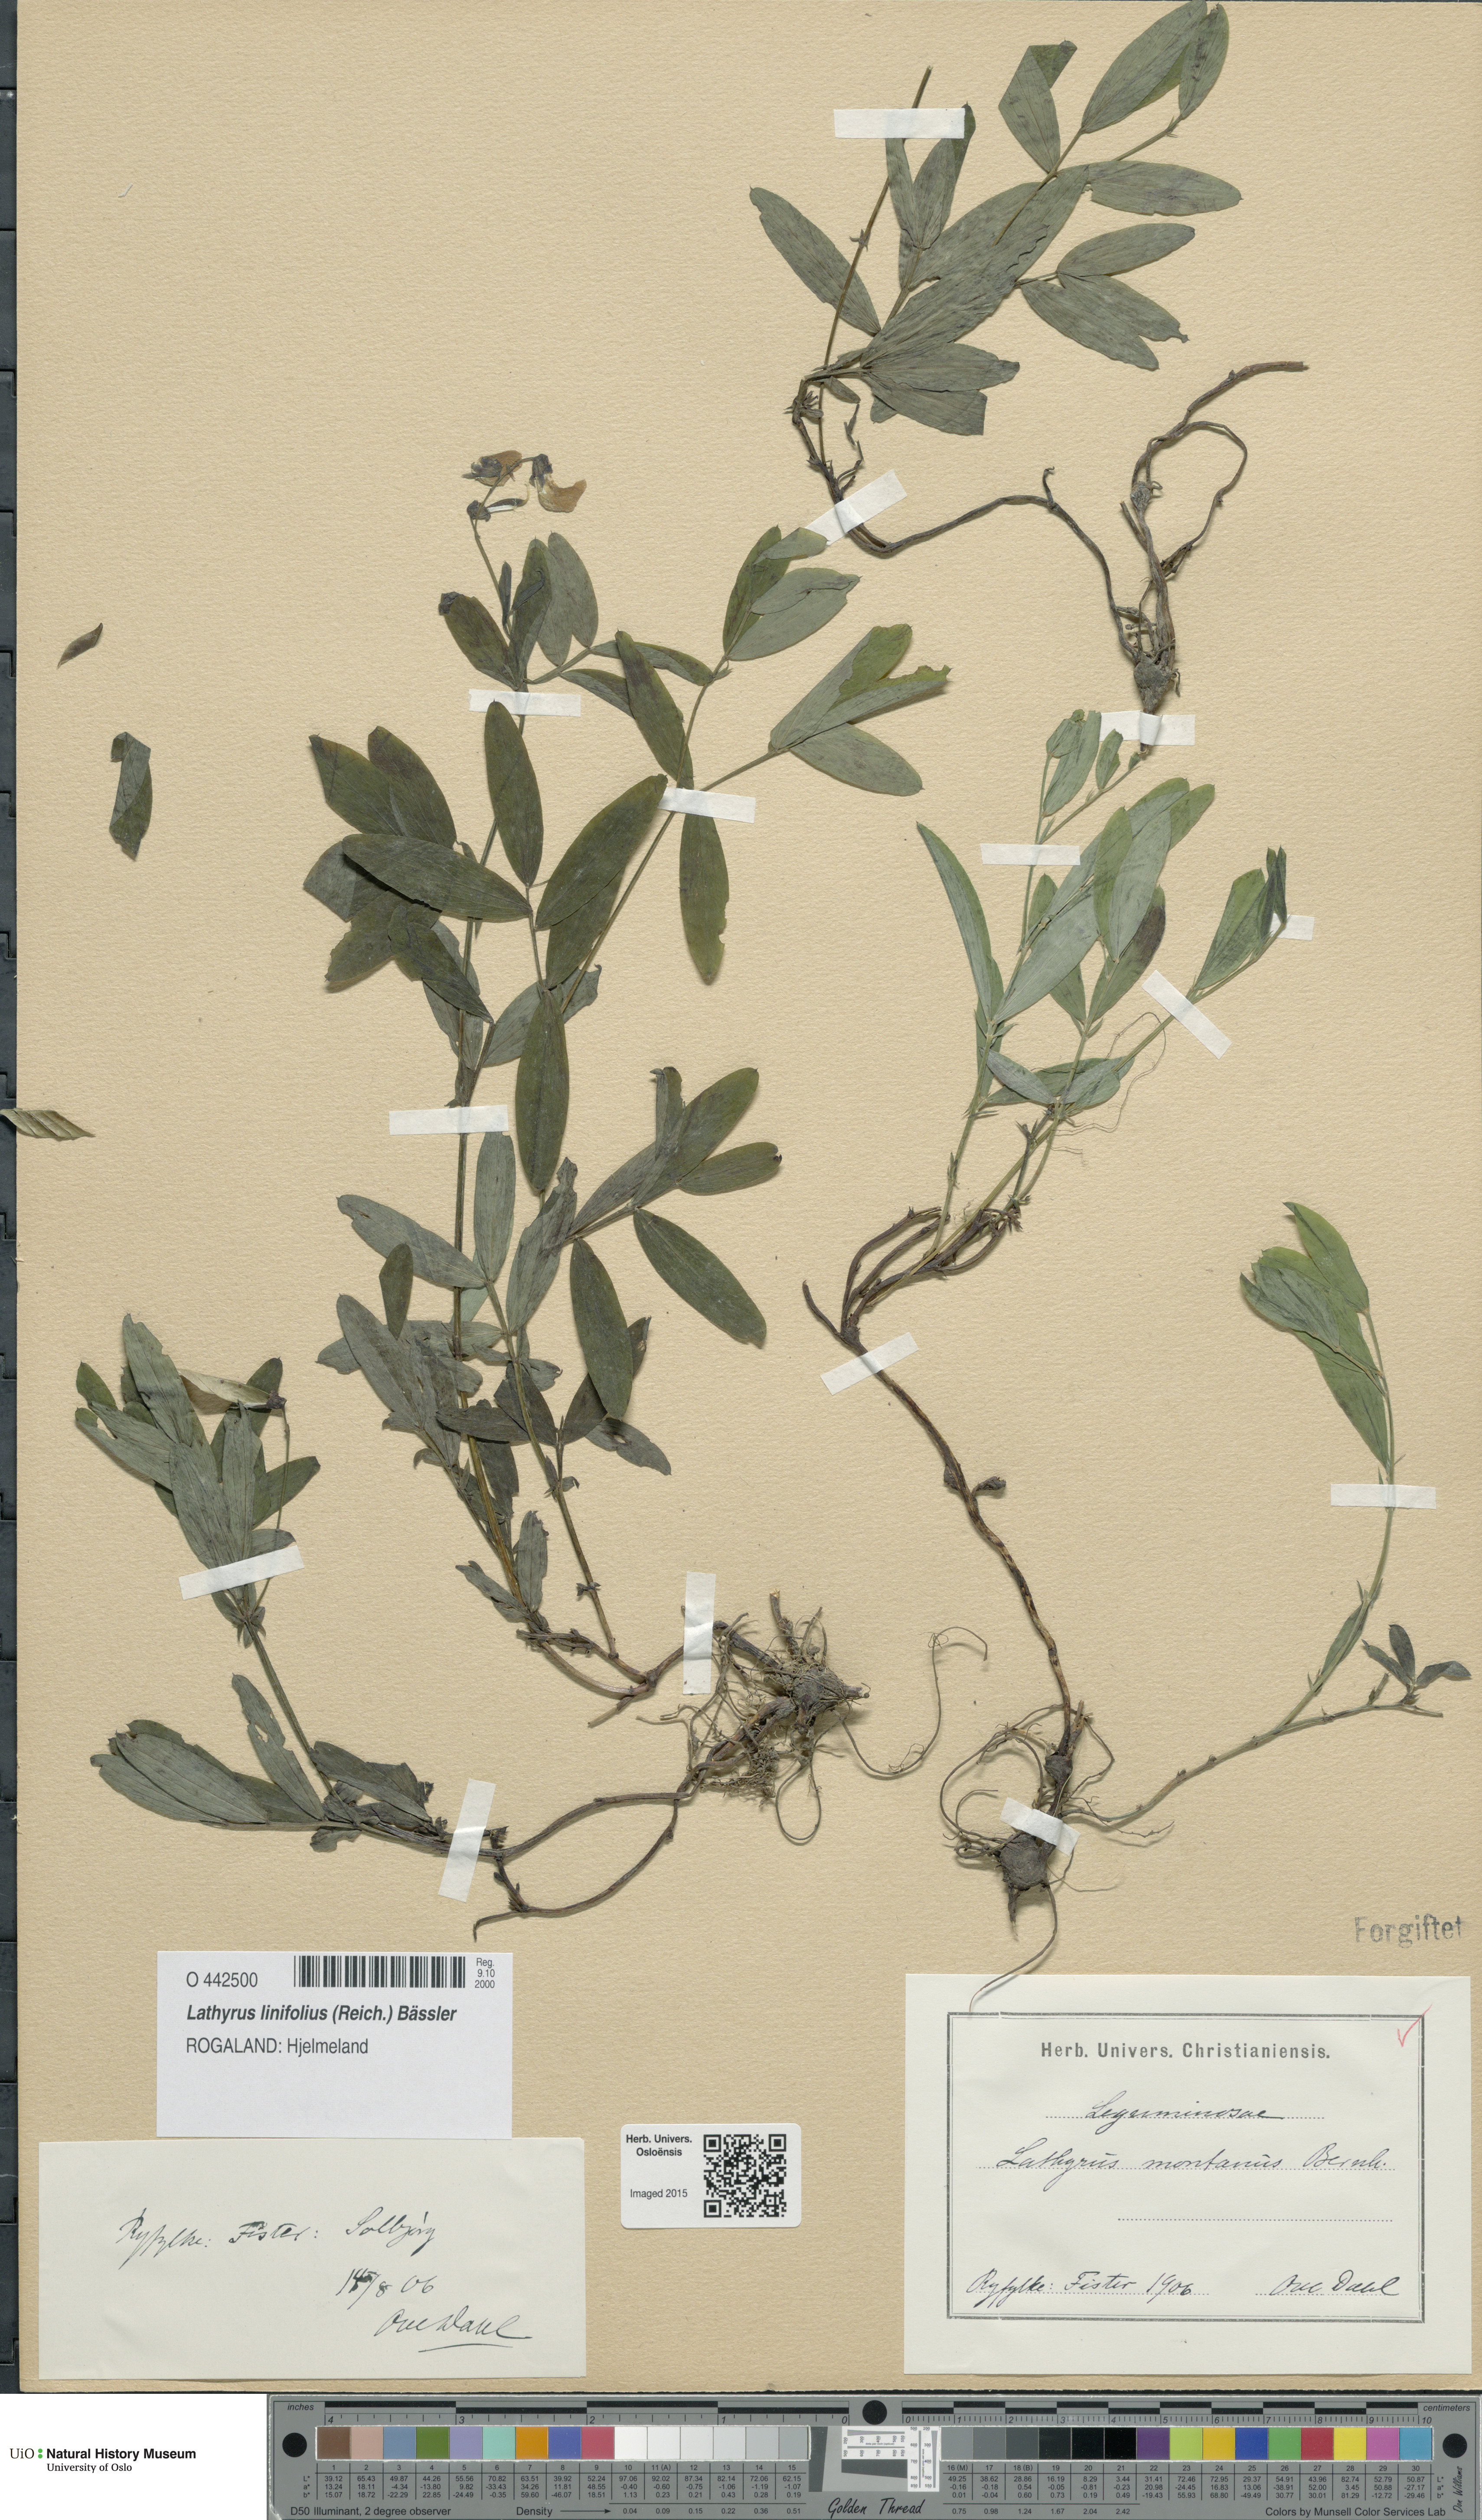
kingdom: Plantae
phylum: Tracheophyta
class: Magnoliopsida
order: Fabales
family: Fabaceae
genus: Lathyrus
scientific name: Lathyrus linifolius
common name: Bitter-vetch
